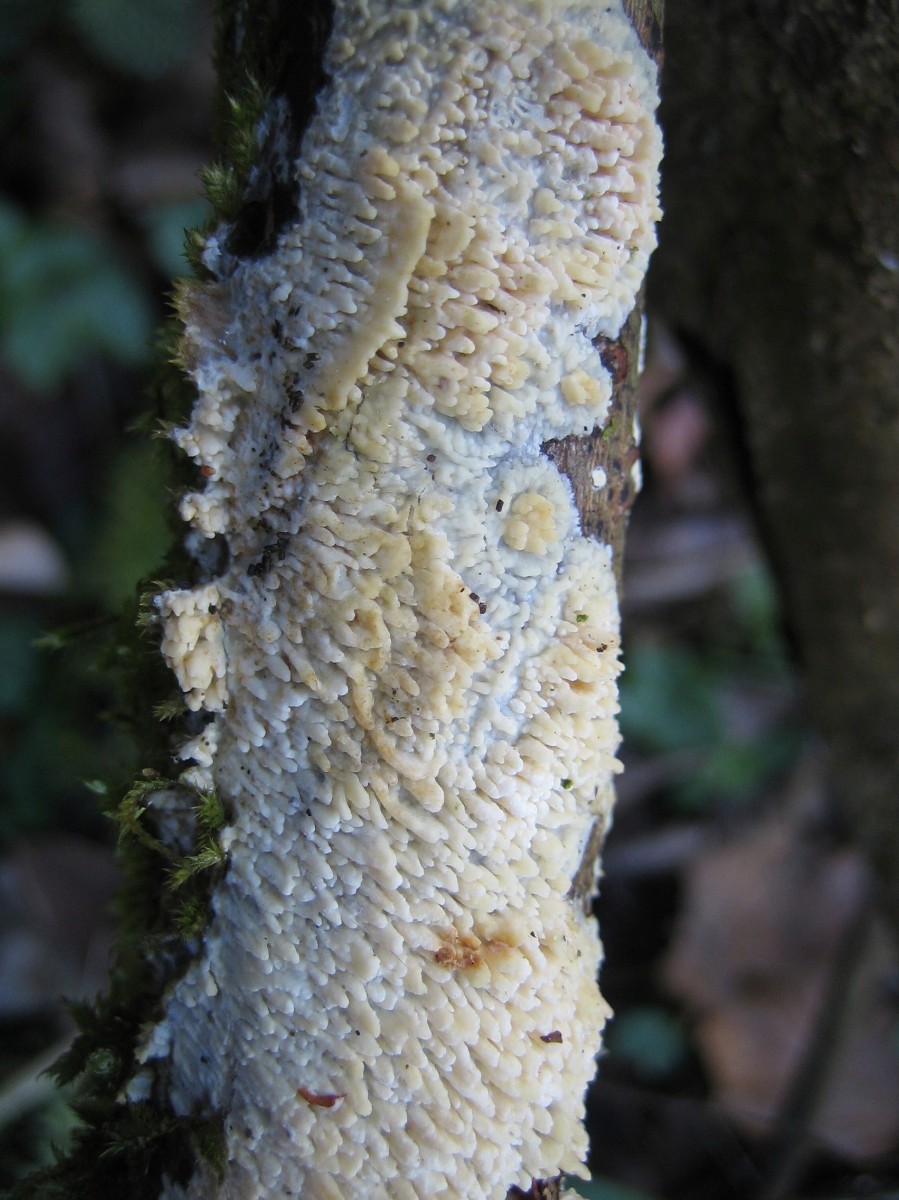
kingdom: Fungi
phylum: Basidiomycota
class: Agaricomycetes
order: Hymenochaetales
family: Schizoporaceae
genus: Xylodon
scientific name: Xylodon radula
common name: grovtandet kalkskind
